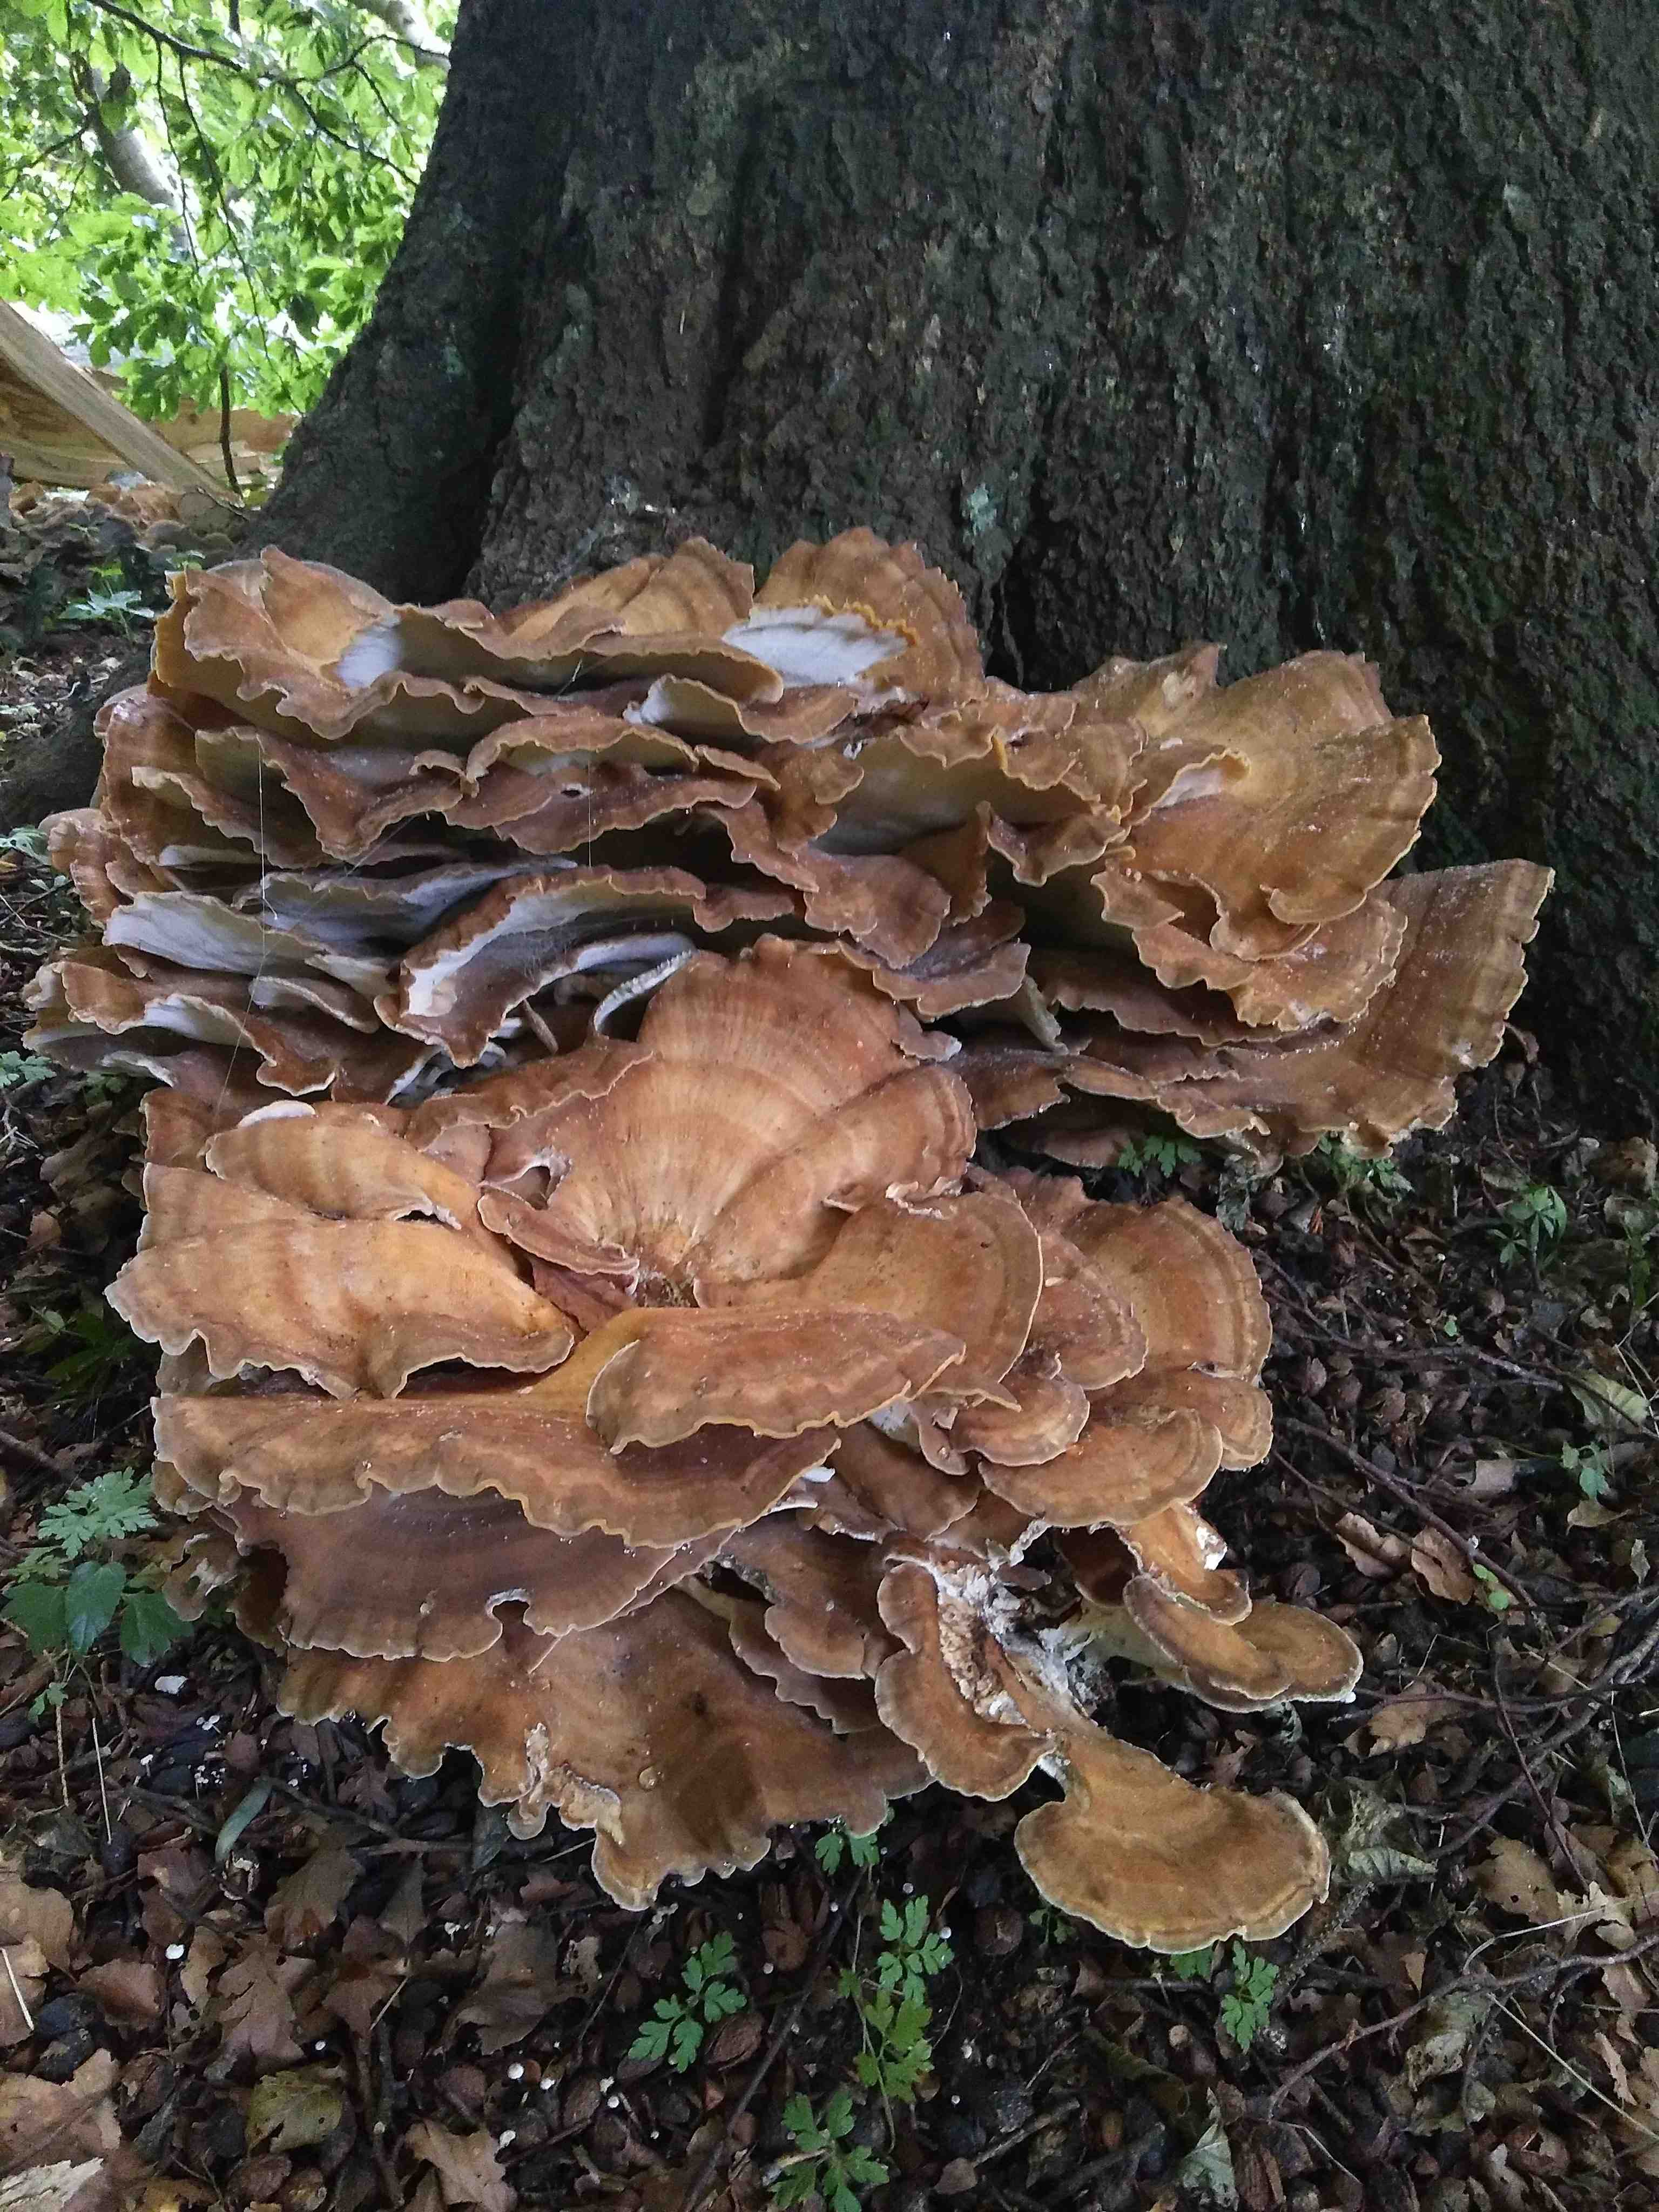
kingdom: Fungi
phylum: Basidiomycota
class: Agaricomycetes
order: Polyporales
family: Meripilaceae
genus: Meripilus
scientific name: Meripilus giganteus
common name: kæmpeporesvamp
